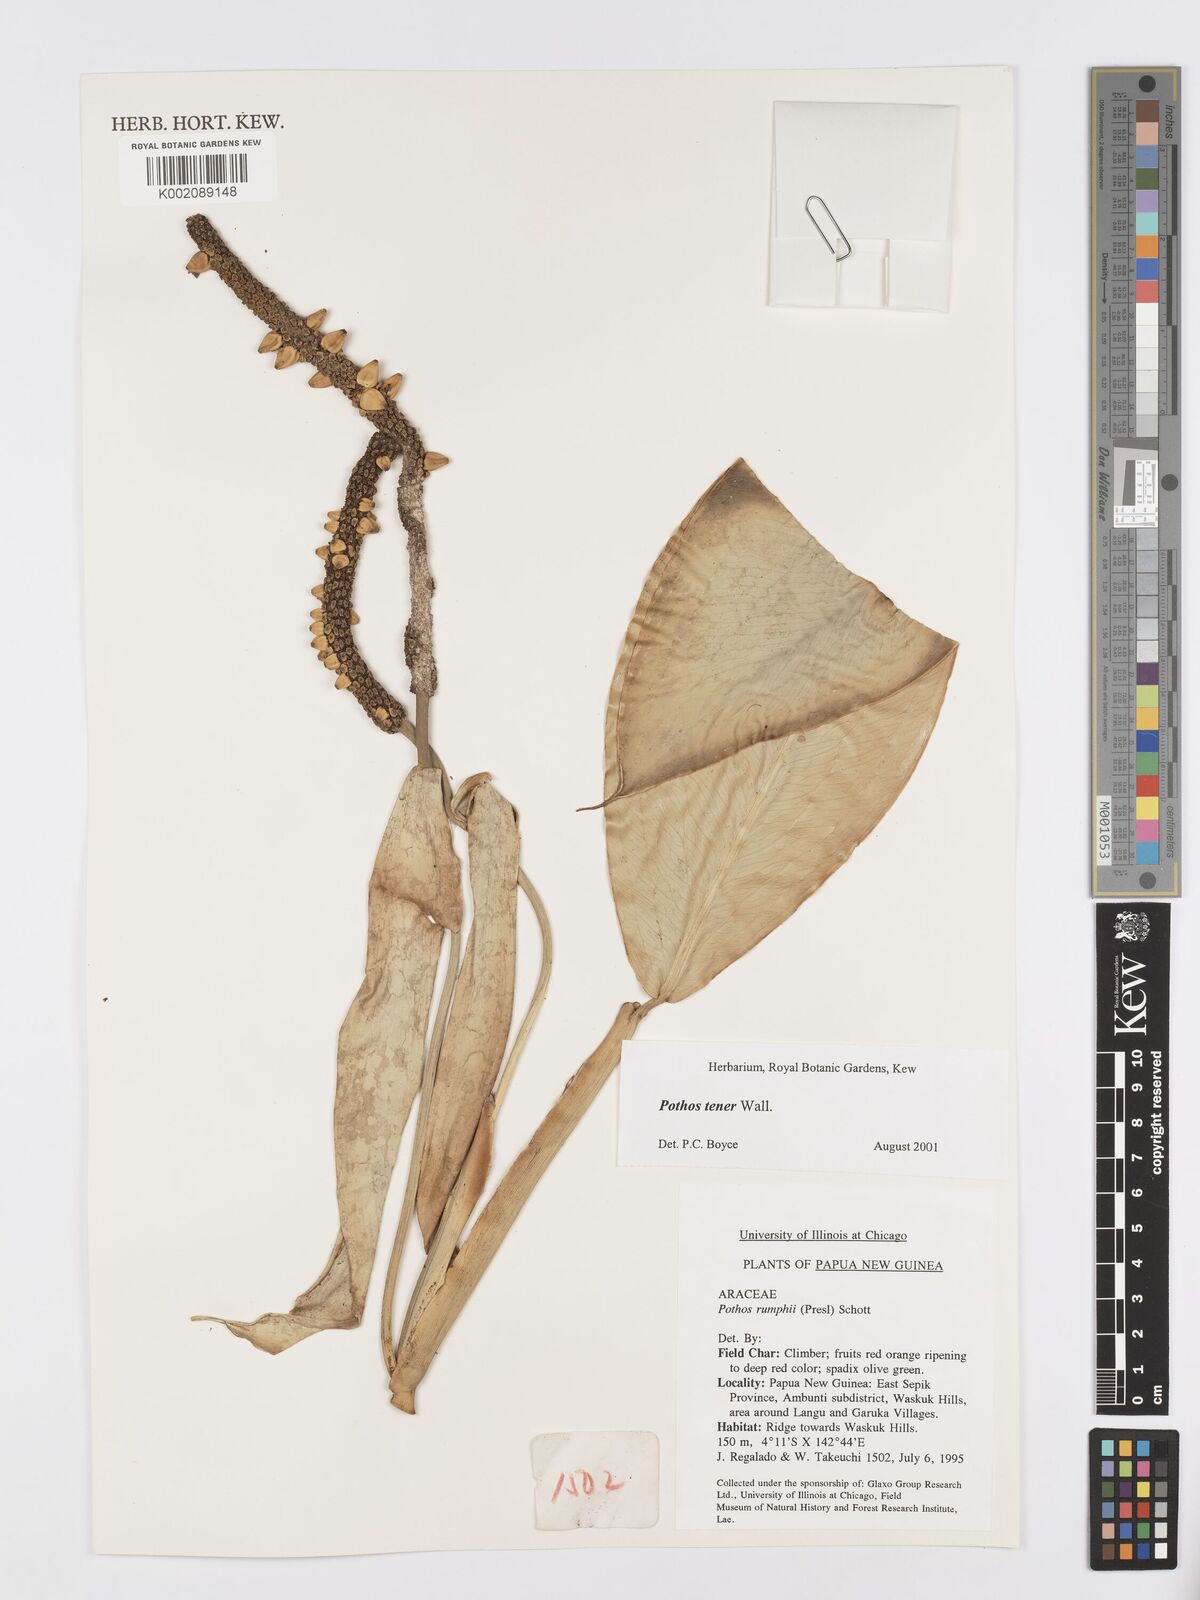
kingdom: Plantae
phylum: Tracheophyta
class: Liliopsida
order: Alismatales
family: Araceae
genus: Pothos
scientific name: Pothos tener
